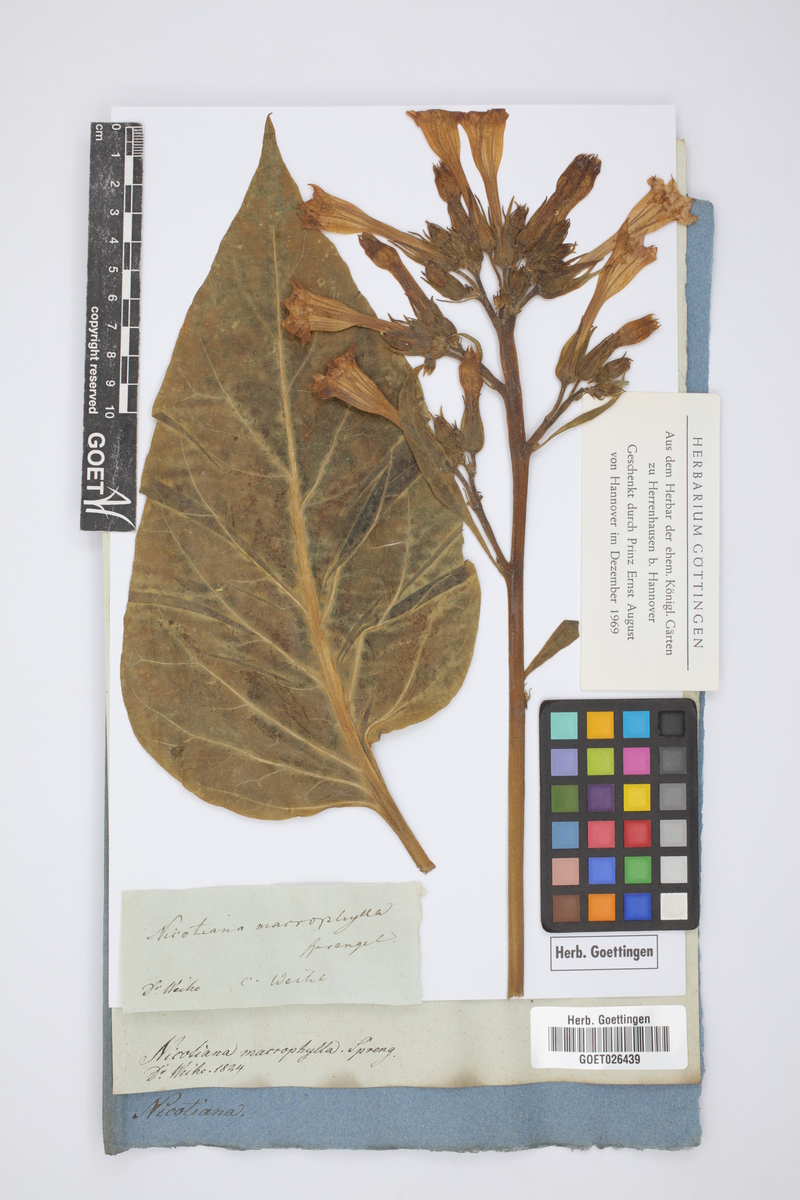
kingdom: Plantae
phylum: Tracheophyta
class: Magnoliopsida
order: Solanales
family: Solanaceae
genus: Nicotiana
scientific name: Nicotiana tabacum
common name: Tobacco
